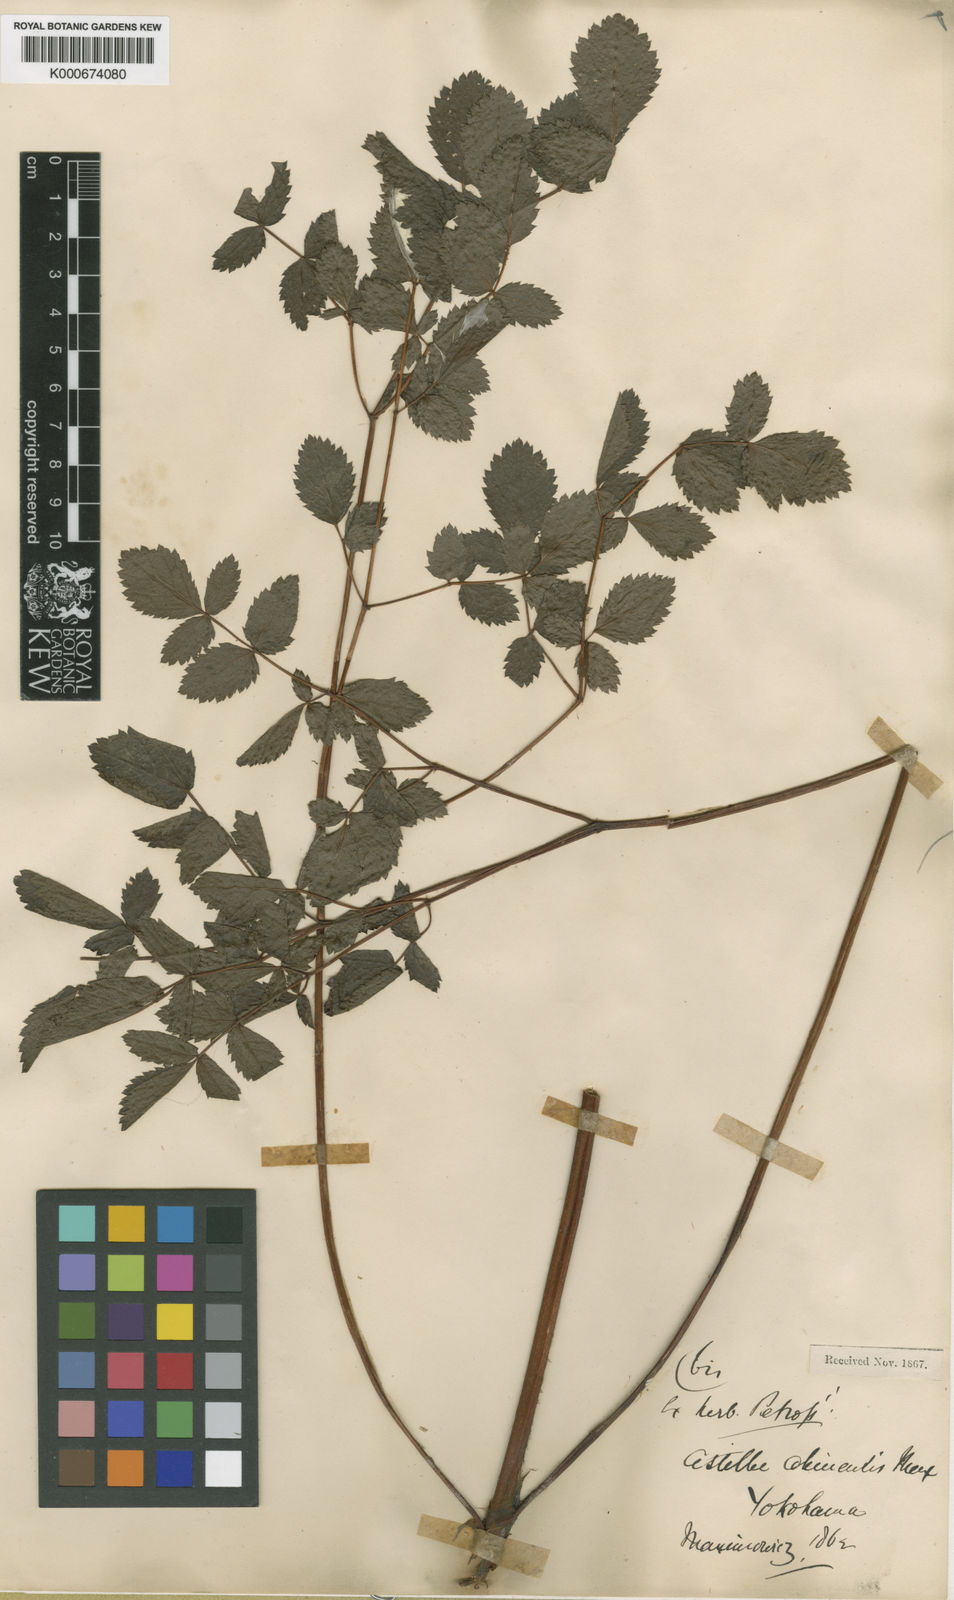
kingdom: Plantae
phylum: Tracheophyta
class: Magnoliopsida
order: Saxifragales
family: Saxifragaceae
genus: Astilbe
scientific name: Astilbe microphylla
